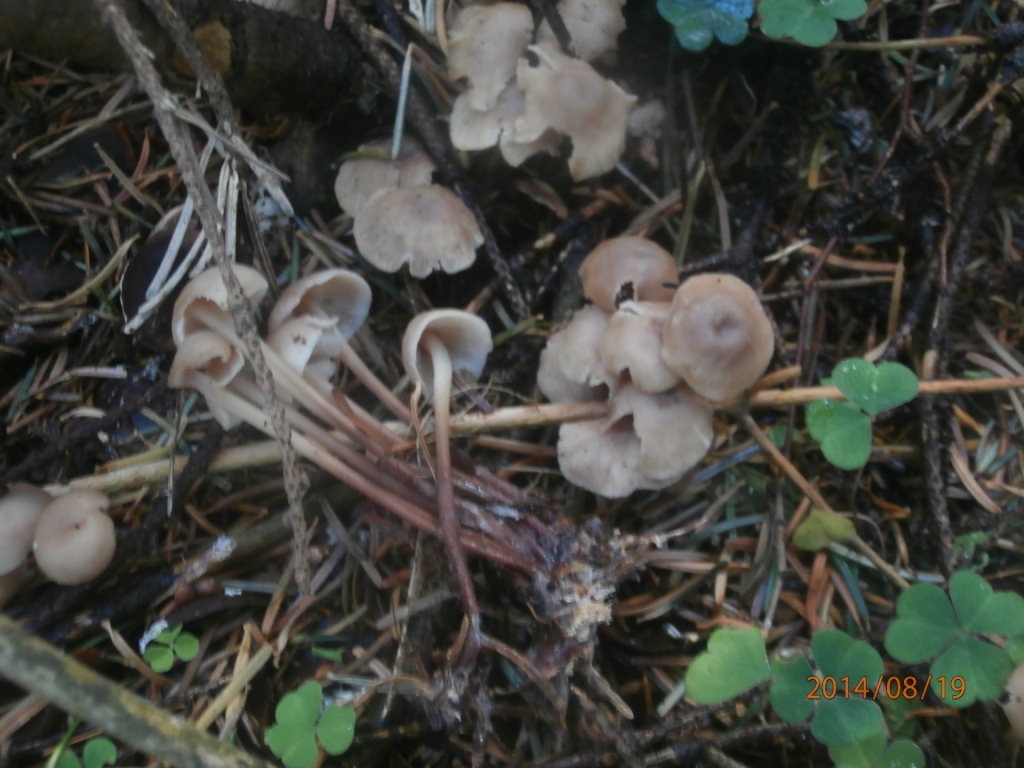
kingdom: Fungi
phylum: Basidiomycota
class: Agaricomycetes
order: Agaricales
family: Omphalotaceae
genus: Collybiopsis
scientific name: Collybiopsis confluens
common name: knippe-fladhat
